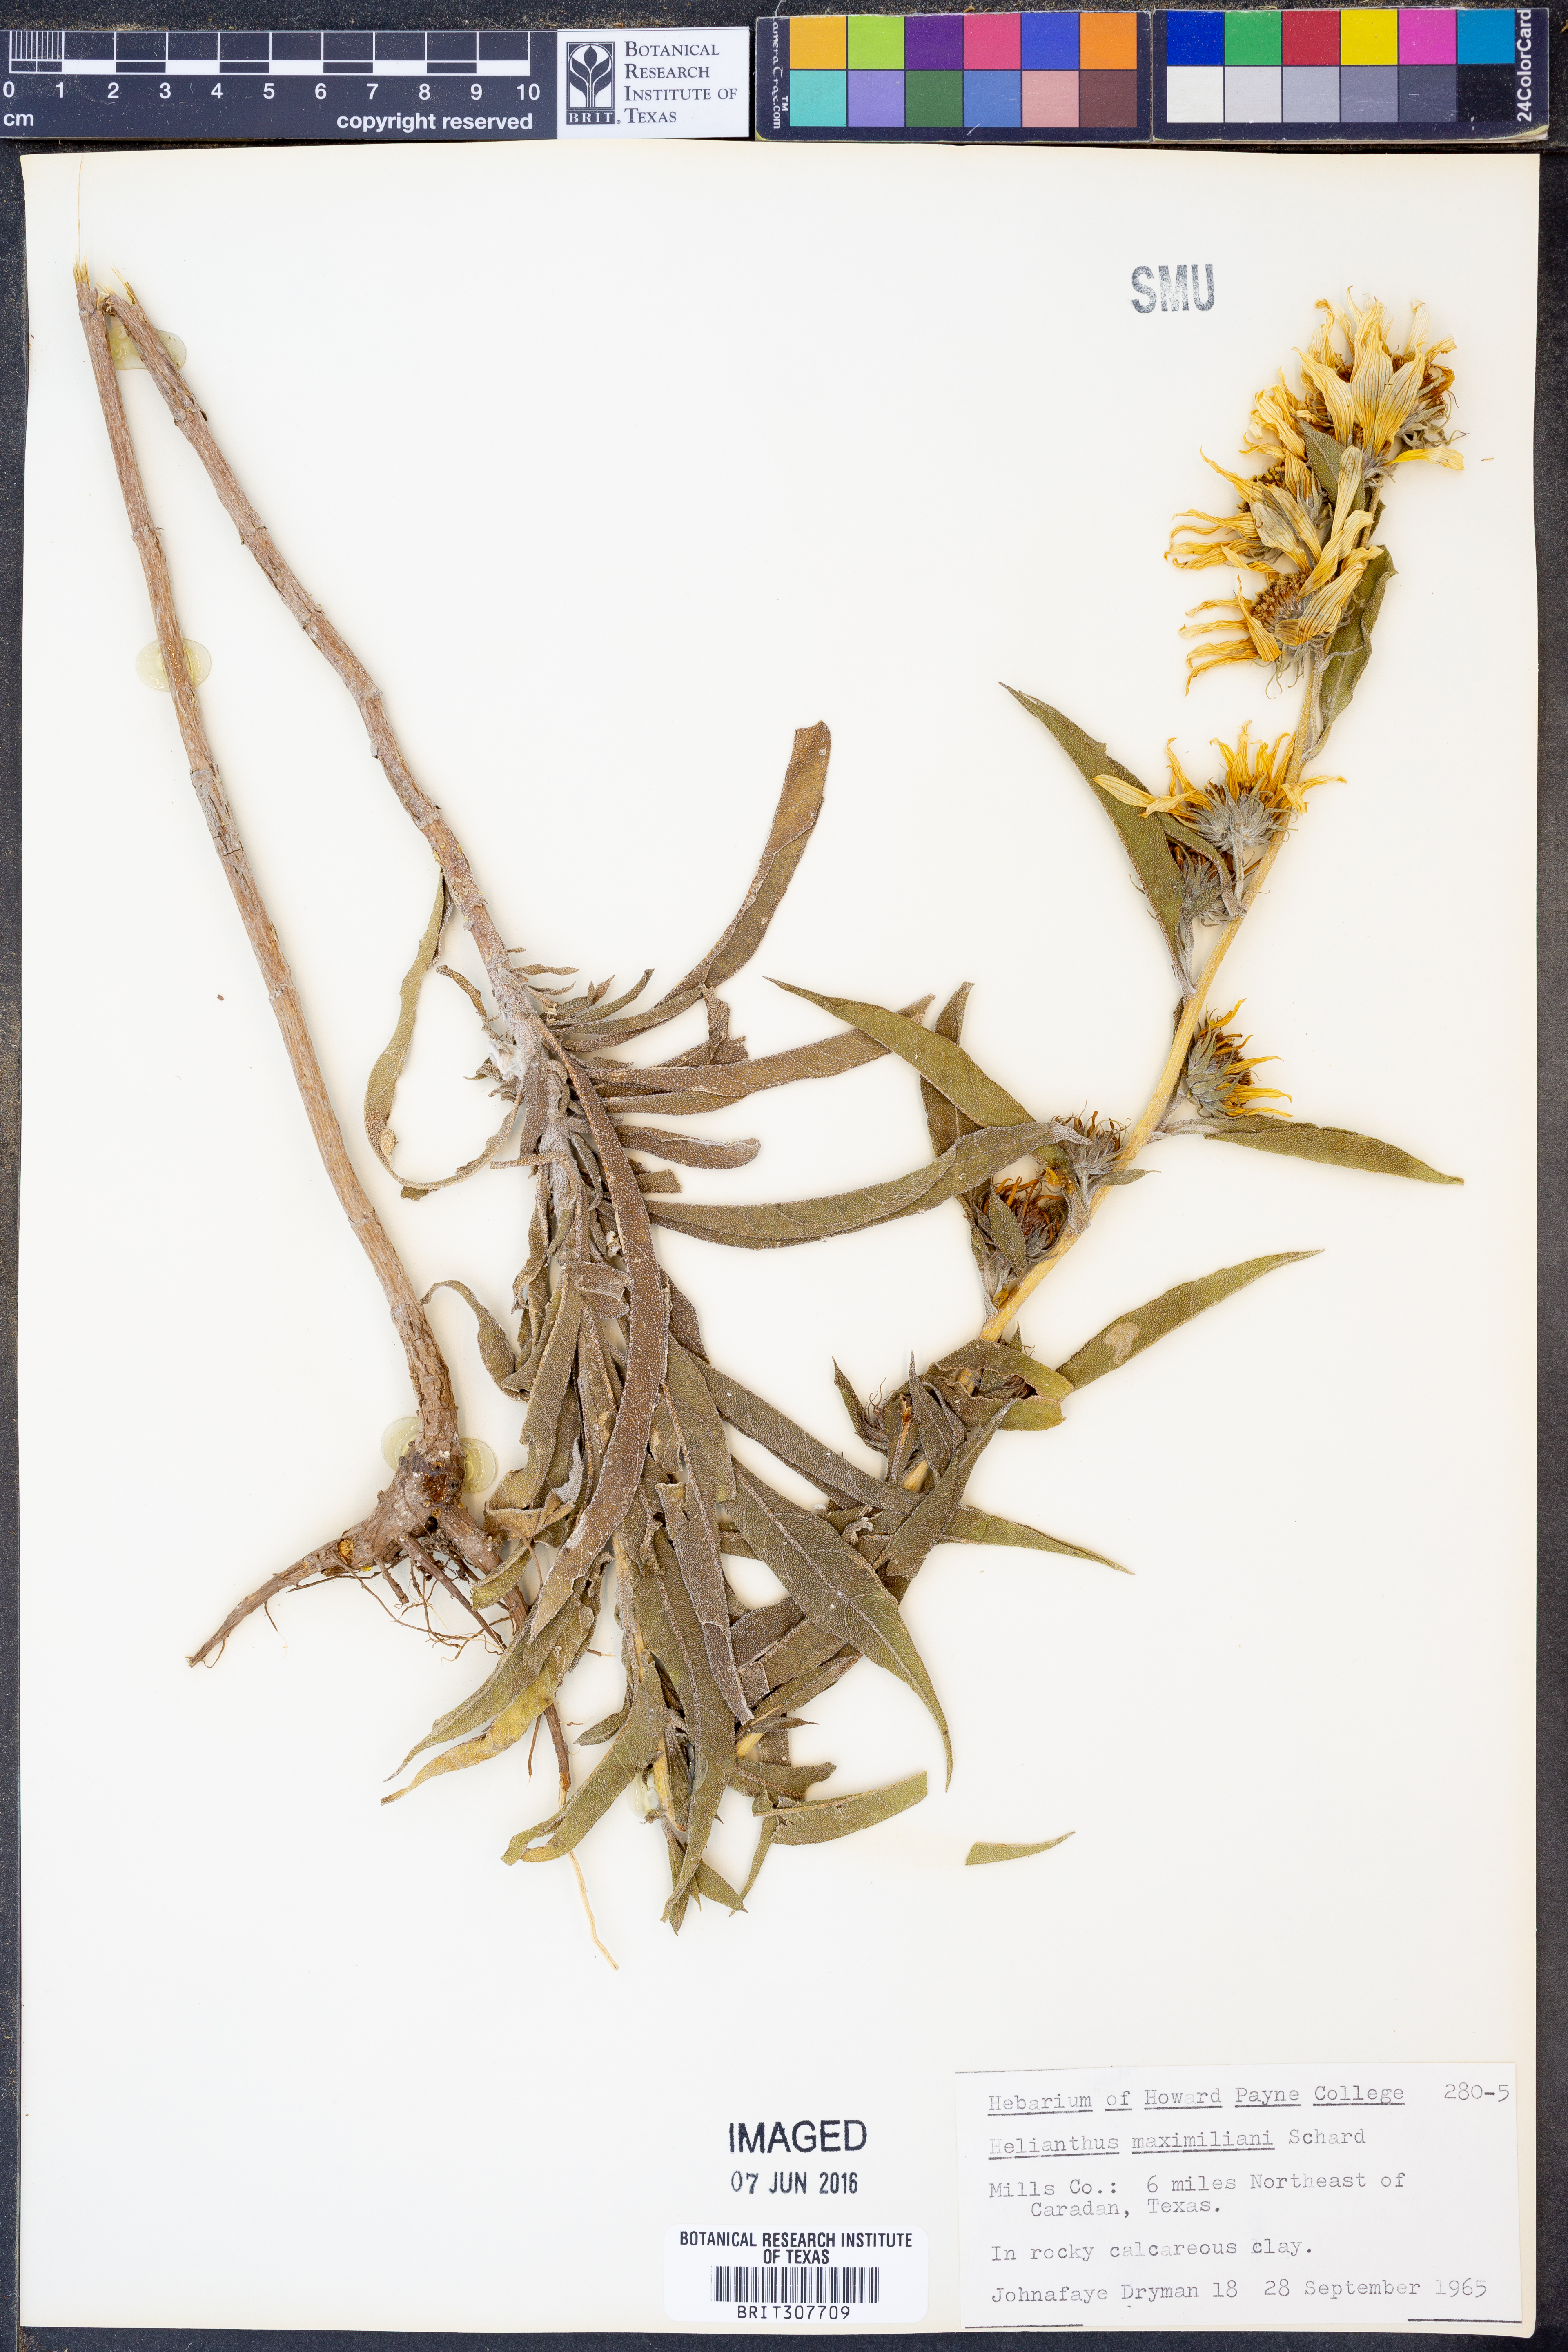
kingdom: Plantae
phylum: Tracheophyta
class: Magnoliopsida
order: Asterales
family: Asteraceae
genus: Helianthus
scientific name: Helianthus maximiliani
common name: Maximilian's sunflower
